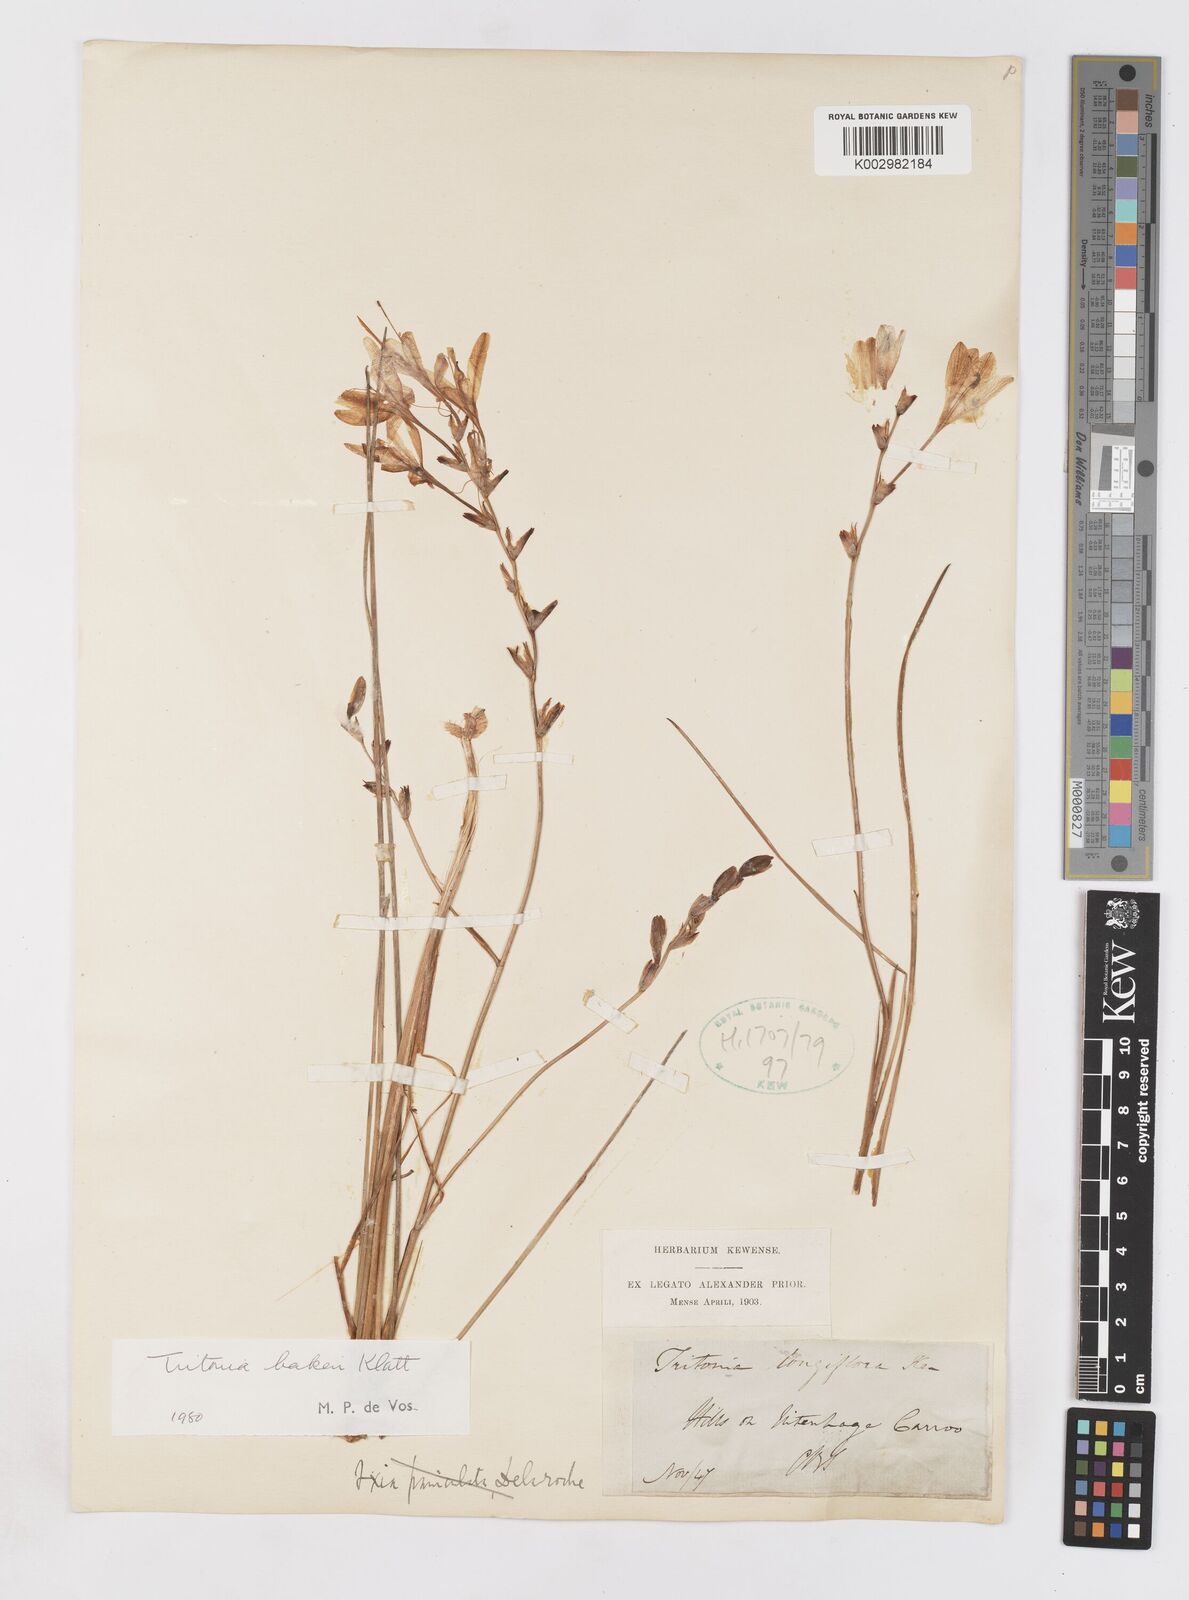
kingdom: Plantae
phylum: Tracheophyta
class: Liliopsida
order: Asparagales
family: Iridaceae
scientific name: Iridaceae
